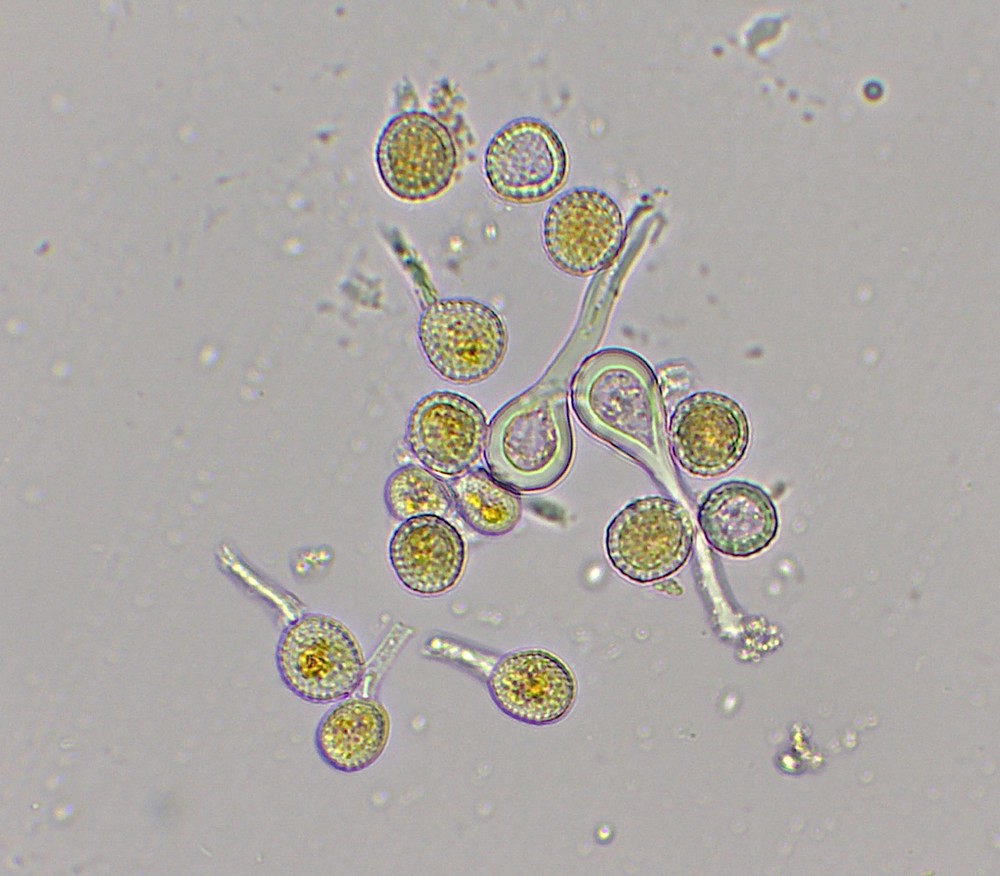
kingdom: Fungi
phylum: Basidiomycota
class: Pucciniomycetes
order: Pucciniales
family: Melampsoraceae
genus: Melampsora
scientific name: Melampsora epitea
